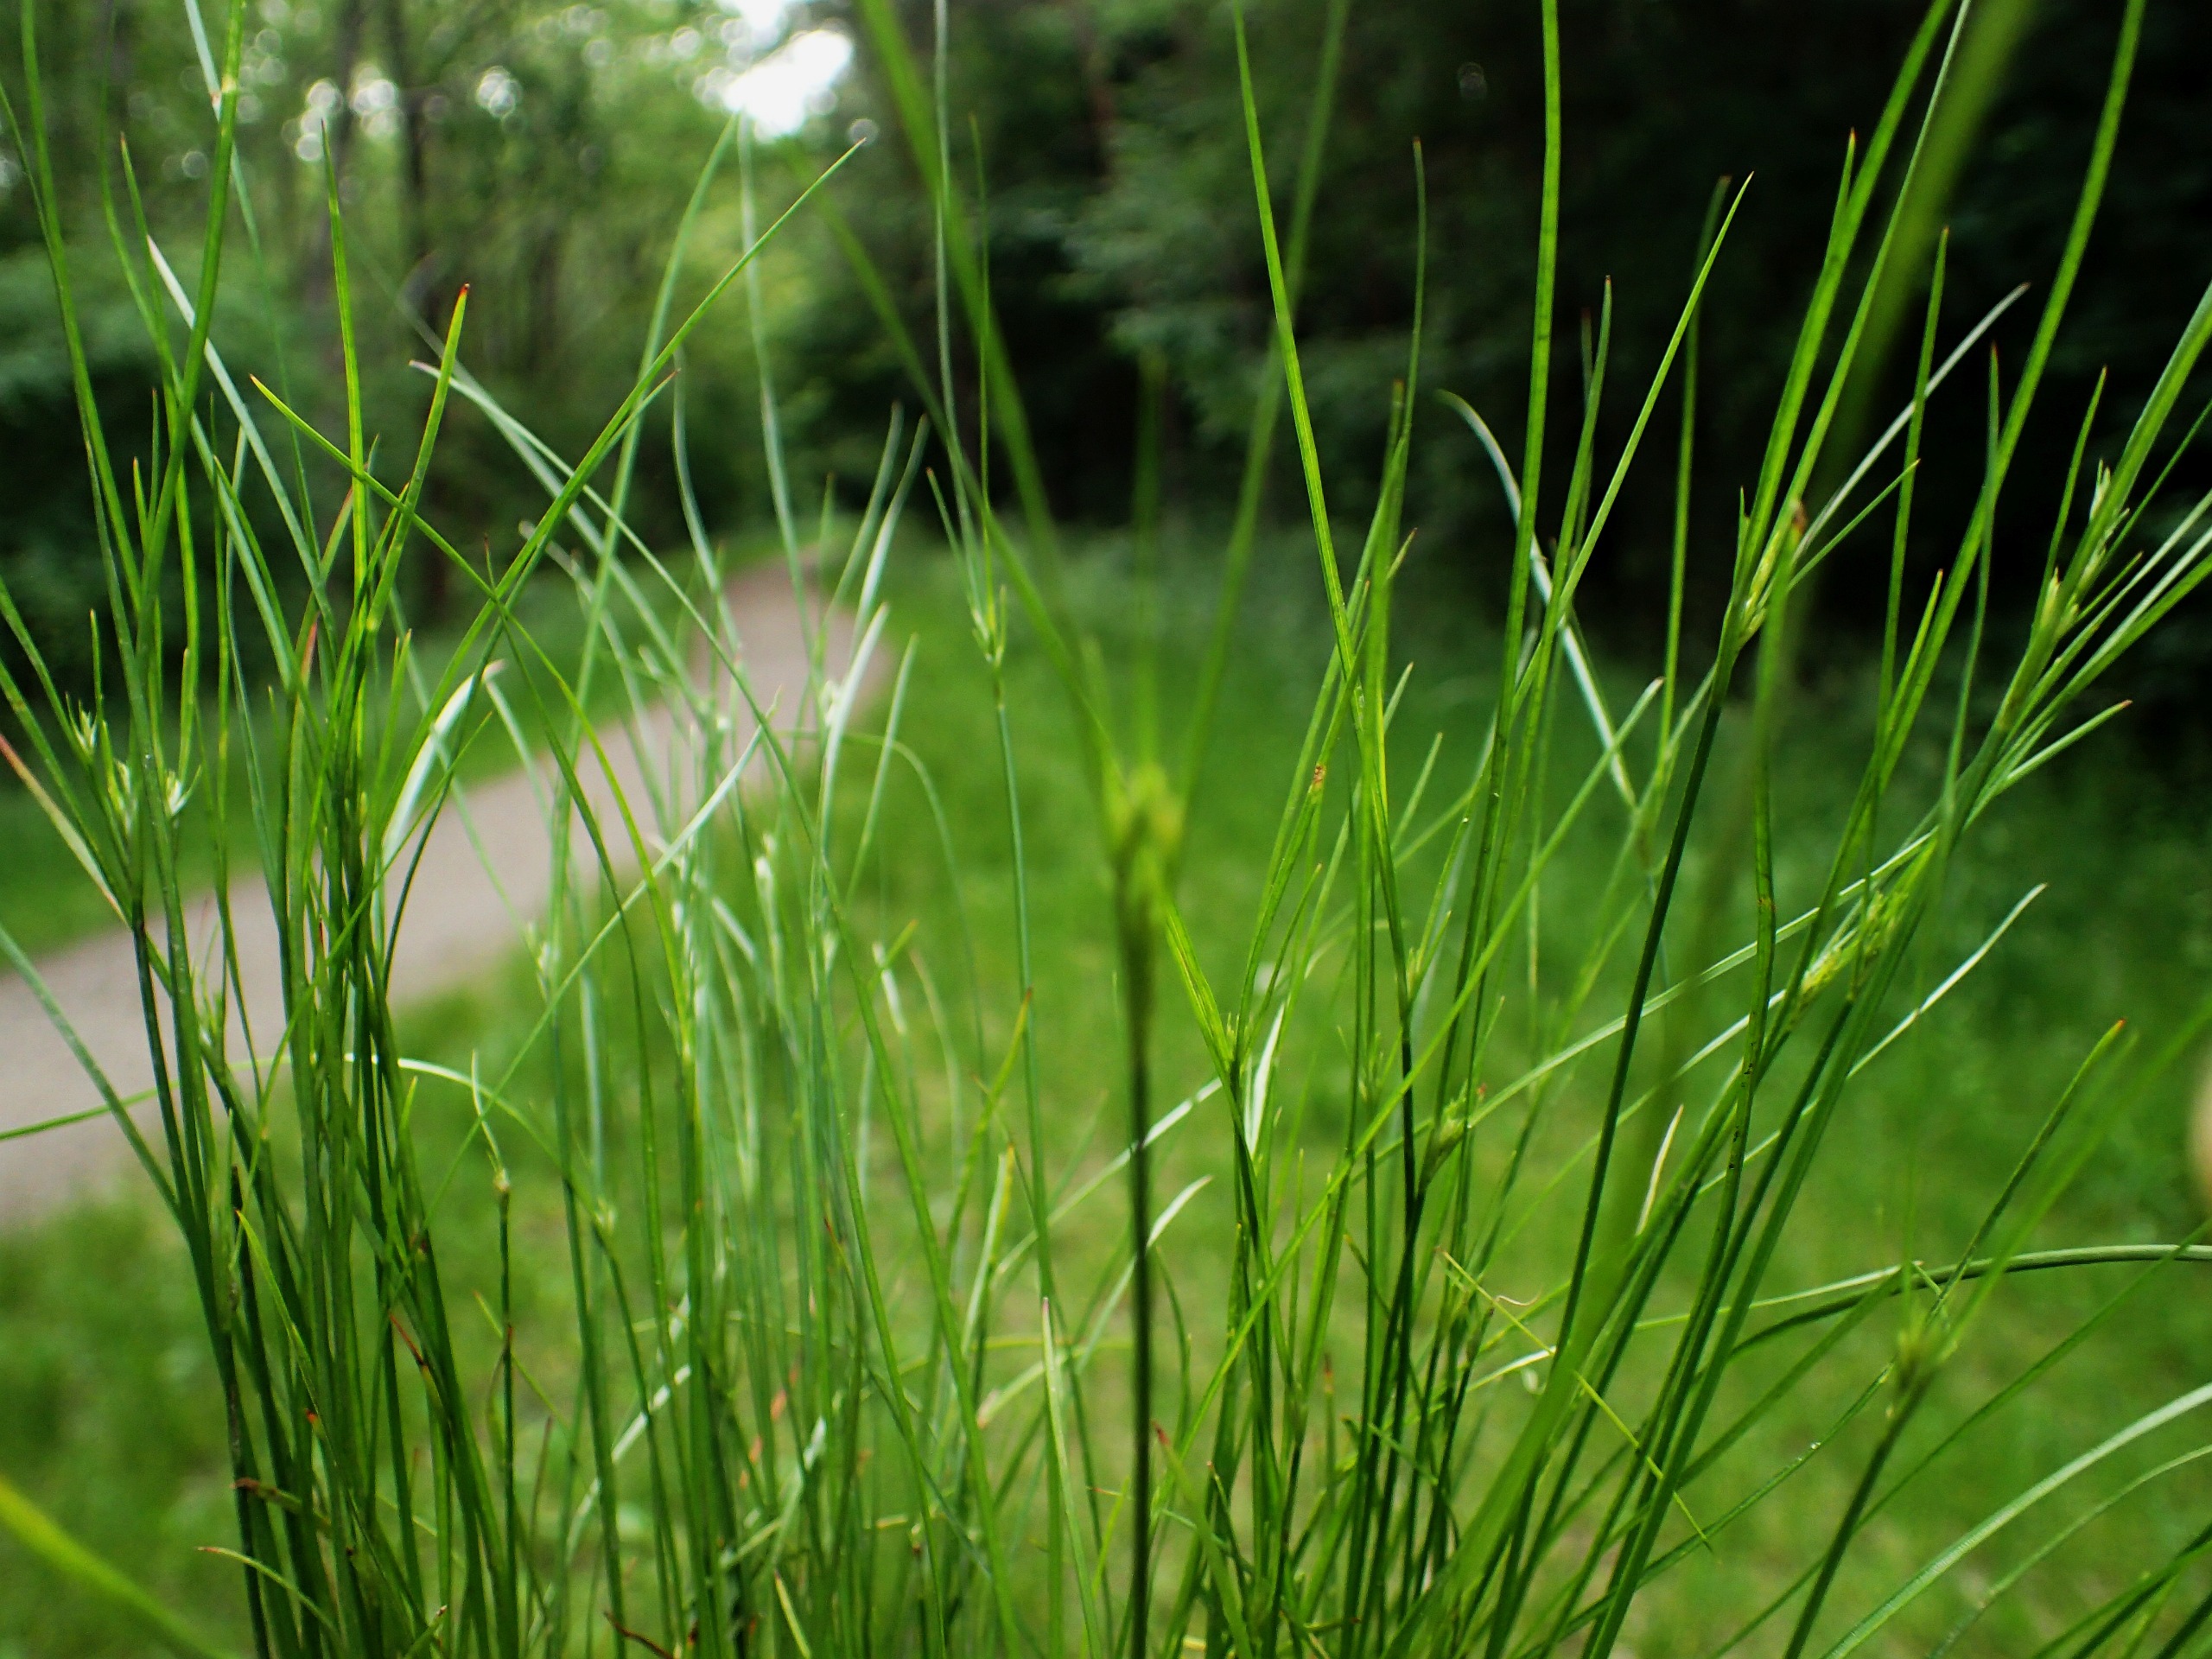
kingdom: Plantae
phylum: Tracheophyta
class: Liliopsida
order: Poales
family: Juncaceae
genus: Juncus
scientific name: Juncus tenuis
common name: Tue-siv
